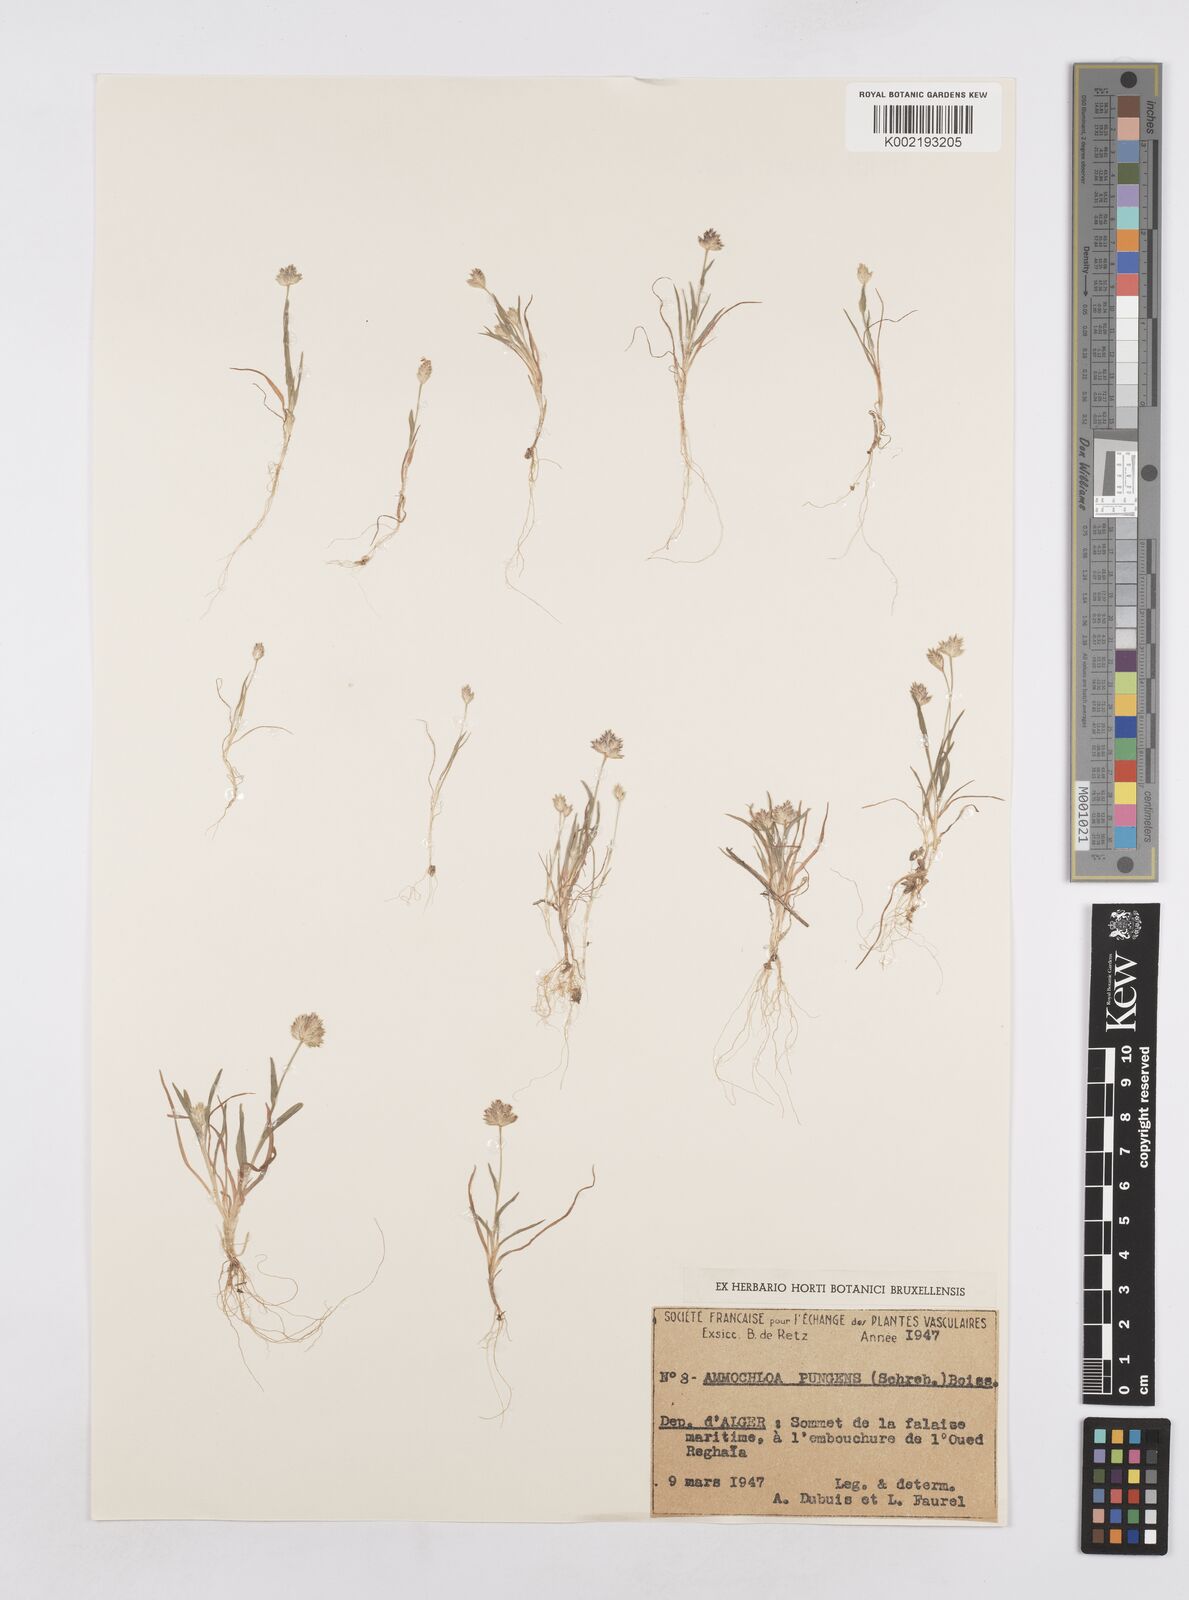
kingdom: Plantae
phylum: Tracheophyta
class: Liliopsida
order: Poales
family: Poaceae
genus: Ammochloa
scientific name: Ammochloa pungens
